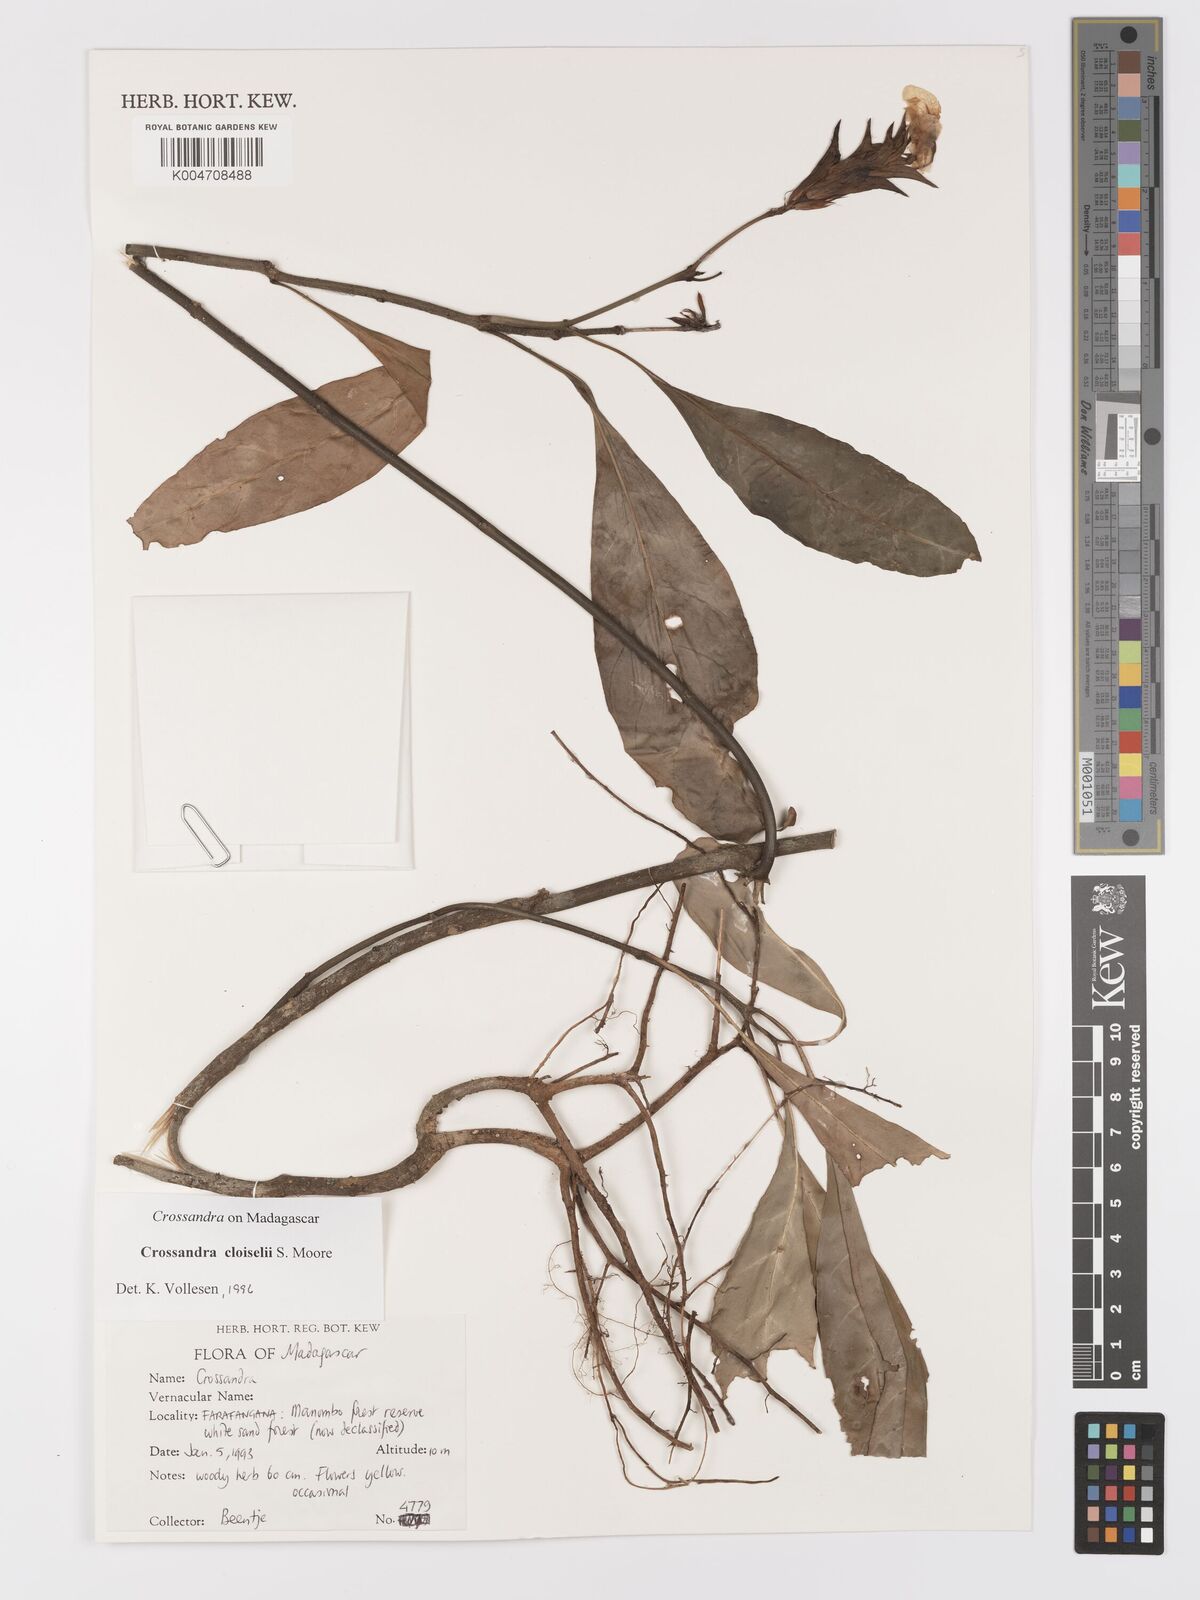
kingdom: Plantae
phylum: Tracheophyta
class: Magnoliopsida
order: Lamiales
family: Acanthaceae
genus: Crossandra
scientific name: Crossandra cloiselii
